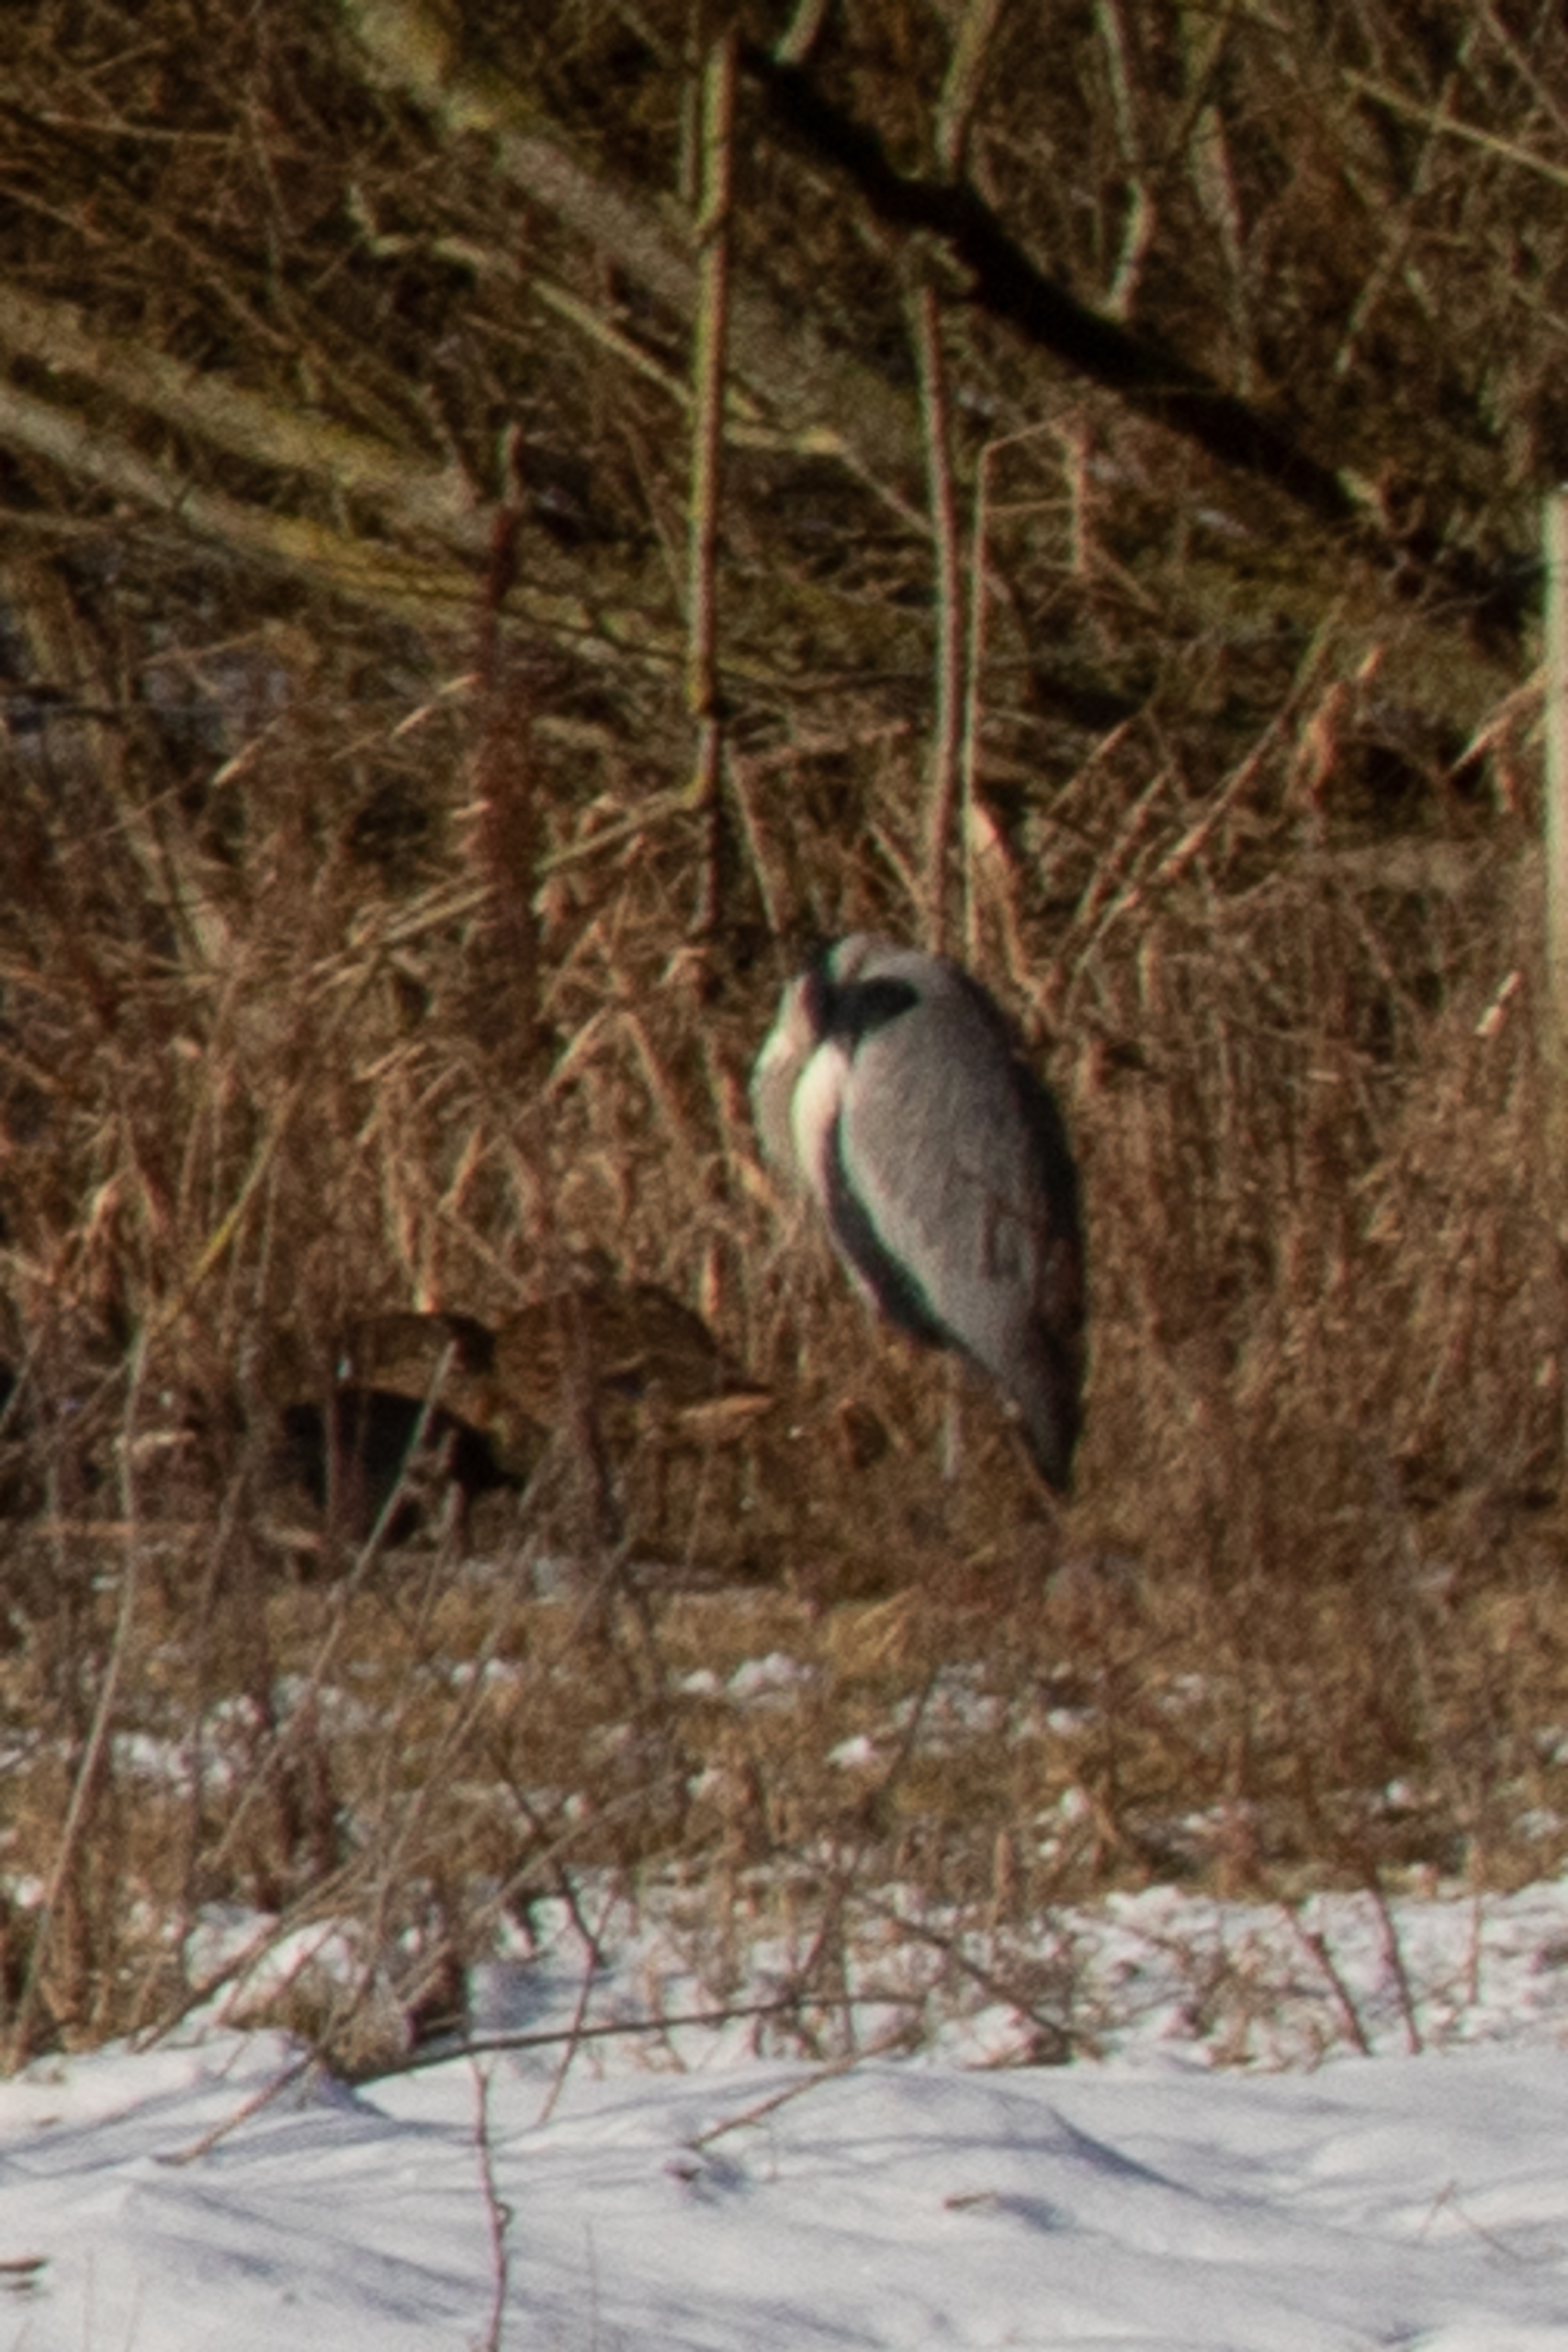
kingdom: Animalia
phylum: Chordata
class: Aves
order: Pelecaniformes
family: Ardeidae
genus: Ardea
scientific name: Ardea cinerea
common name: Fiskehejre
